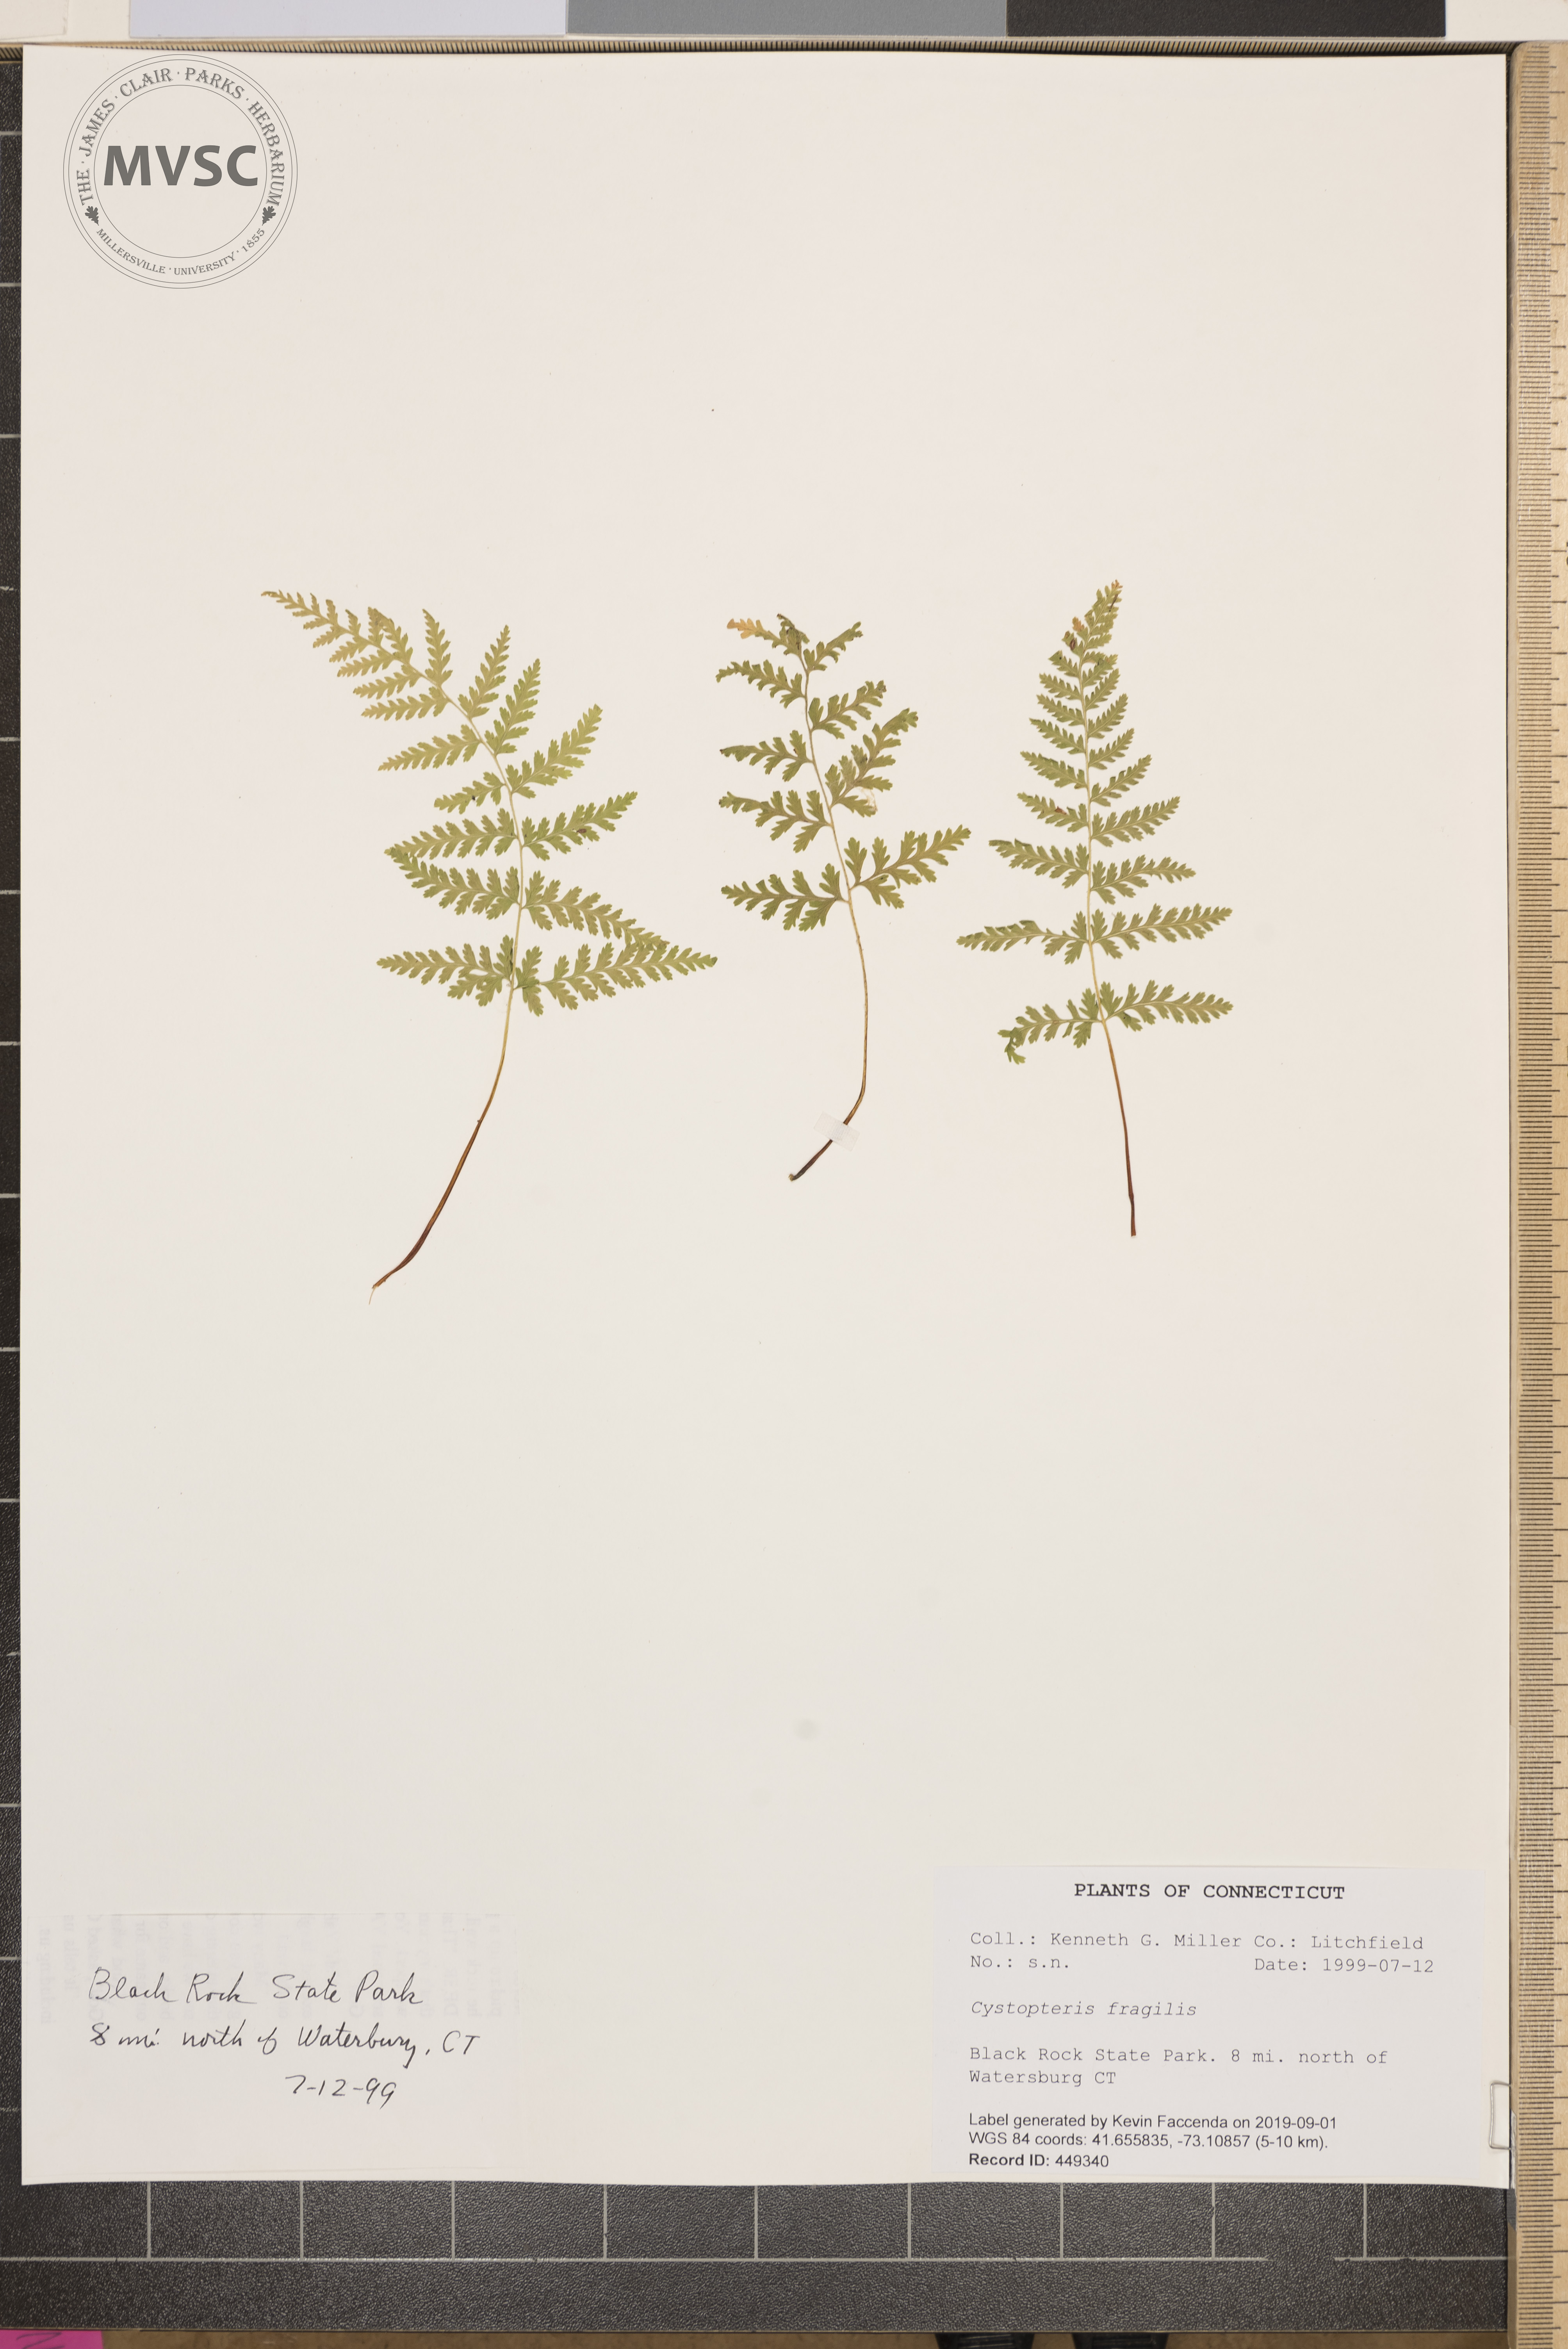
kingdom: Plantae
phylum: Tracheophyta
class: Polypodiopsida
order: Polypodiales
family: Cystopteridaceae
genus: Cystopteris
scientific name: Cystopteris fragilis
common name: Brittle bladder fern
